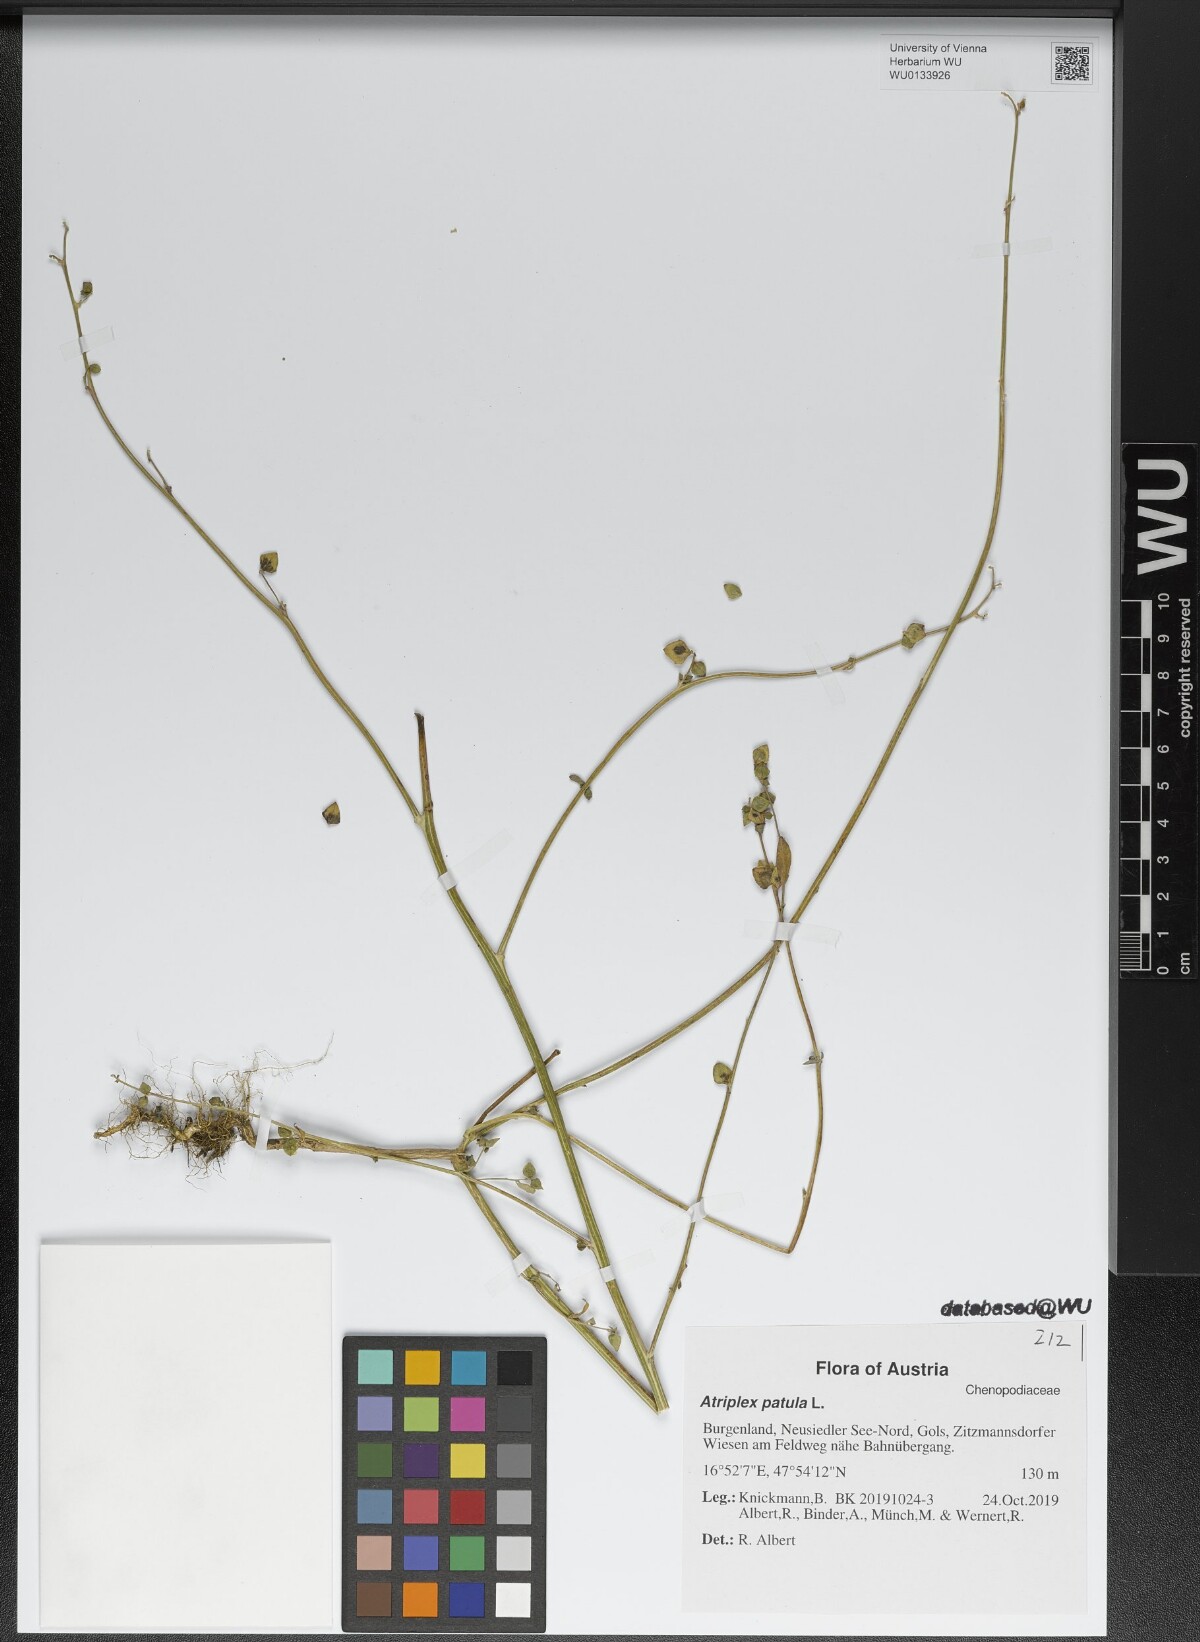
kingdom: Plantae
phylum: Tracheophyta
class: Magnoliopsida
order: Caryophyllales
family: Amaranthaceae
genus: Atriplex
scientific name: Atriplex patula
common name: Common orache
